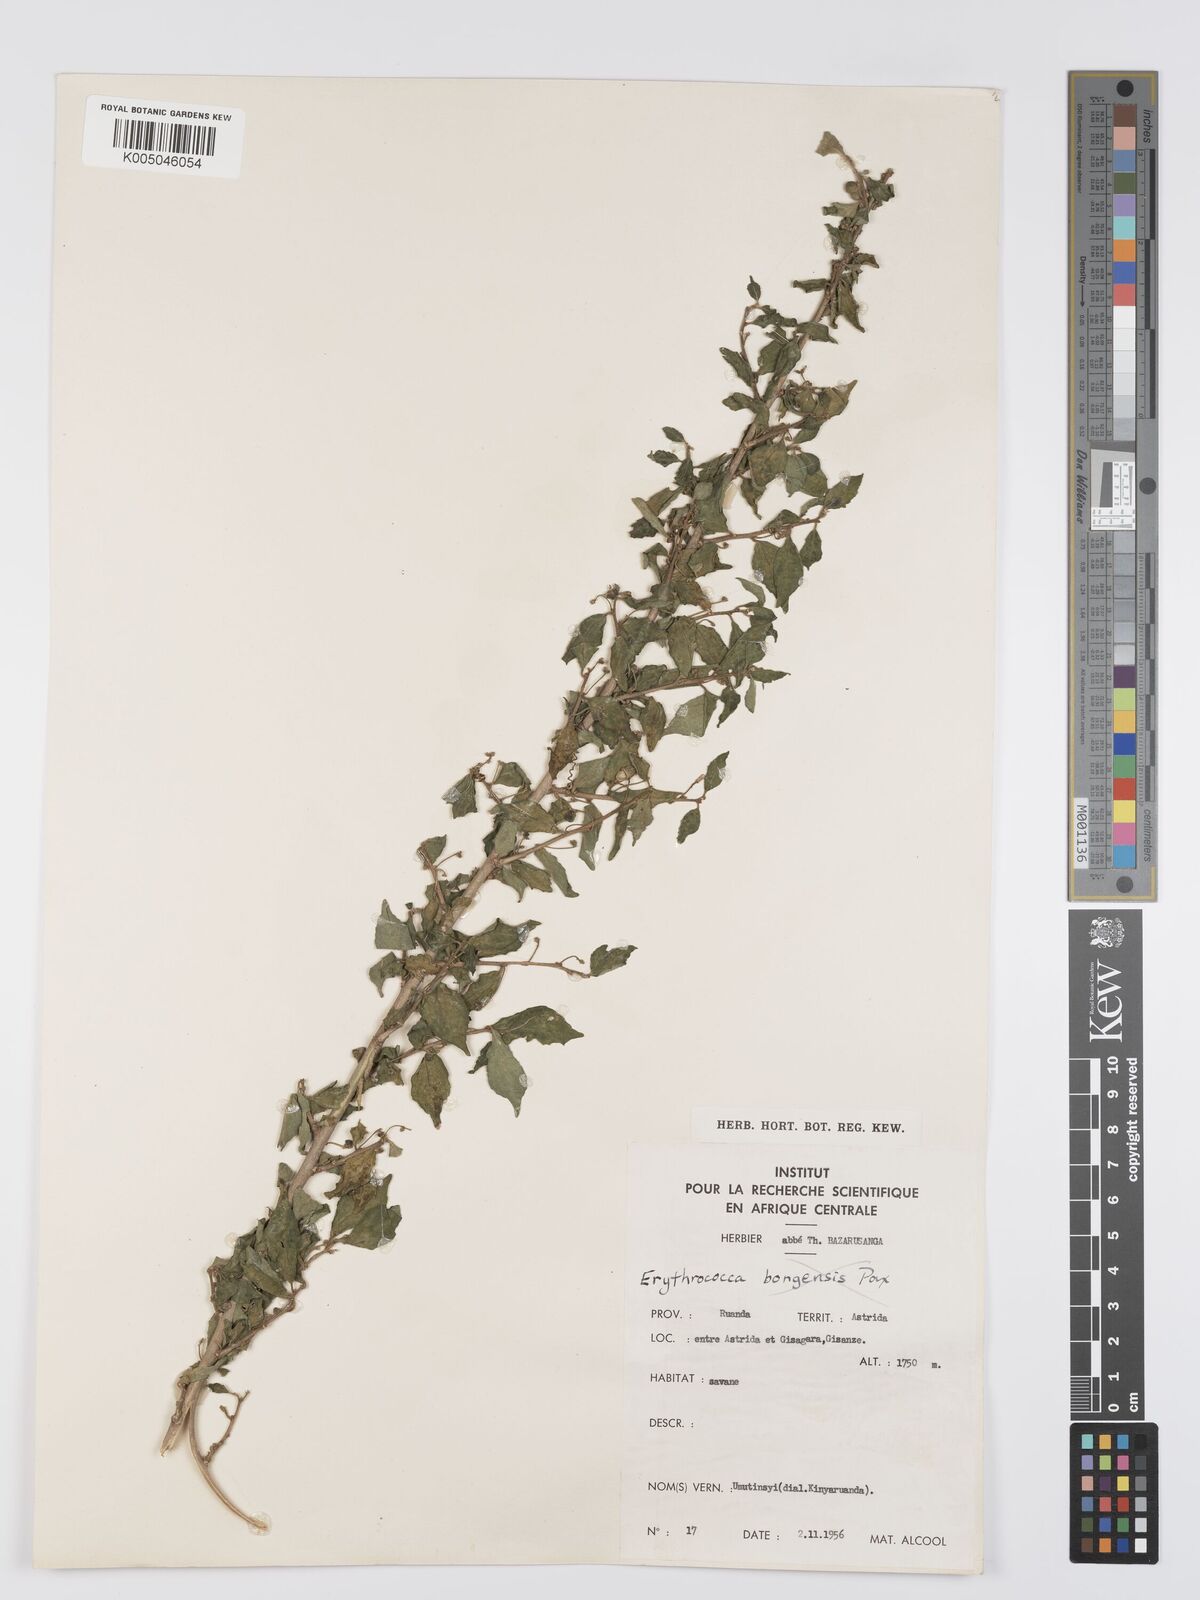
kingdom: Plantae
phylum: Tracheophyta
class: Magnoliopsida
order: Malpighiales
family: Euphorbiaceae
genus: Erythrococca
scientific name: Erythrococca
